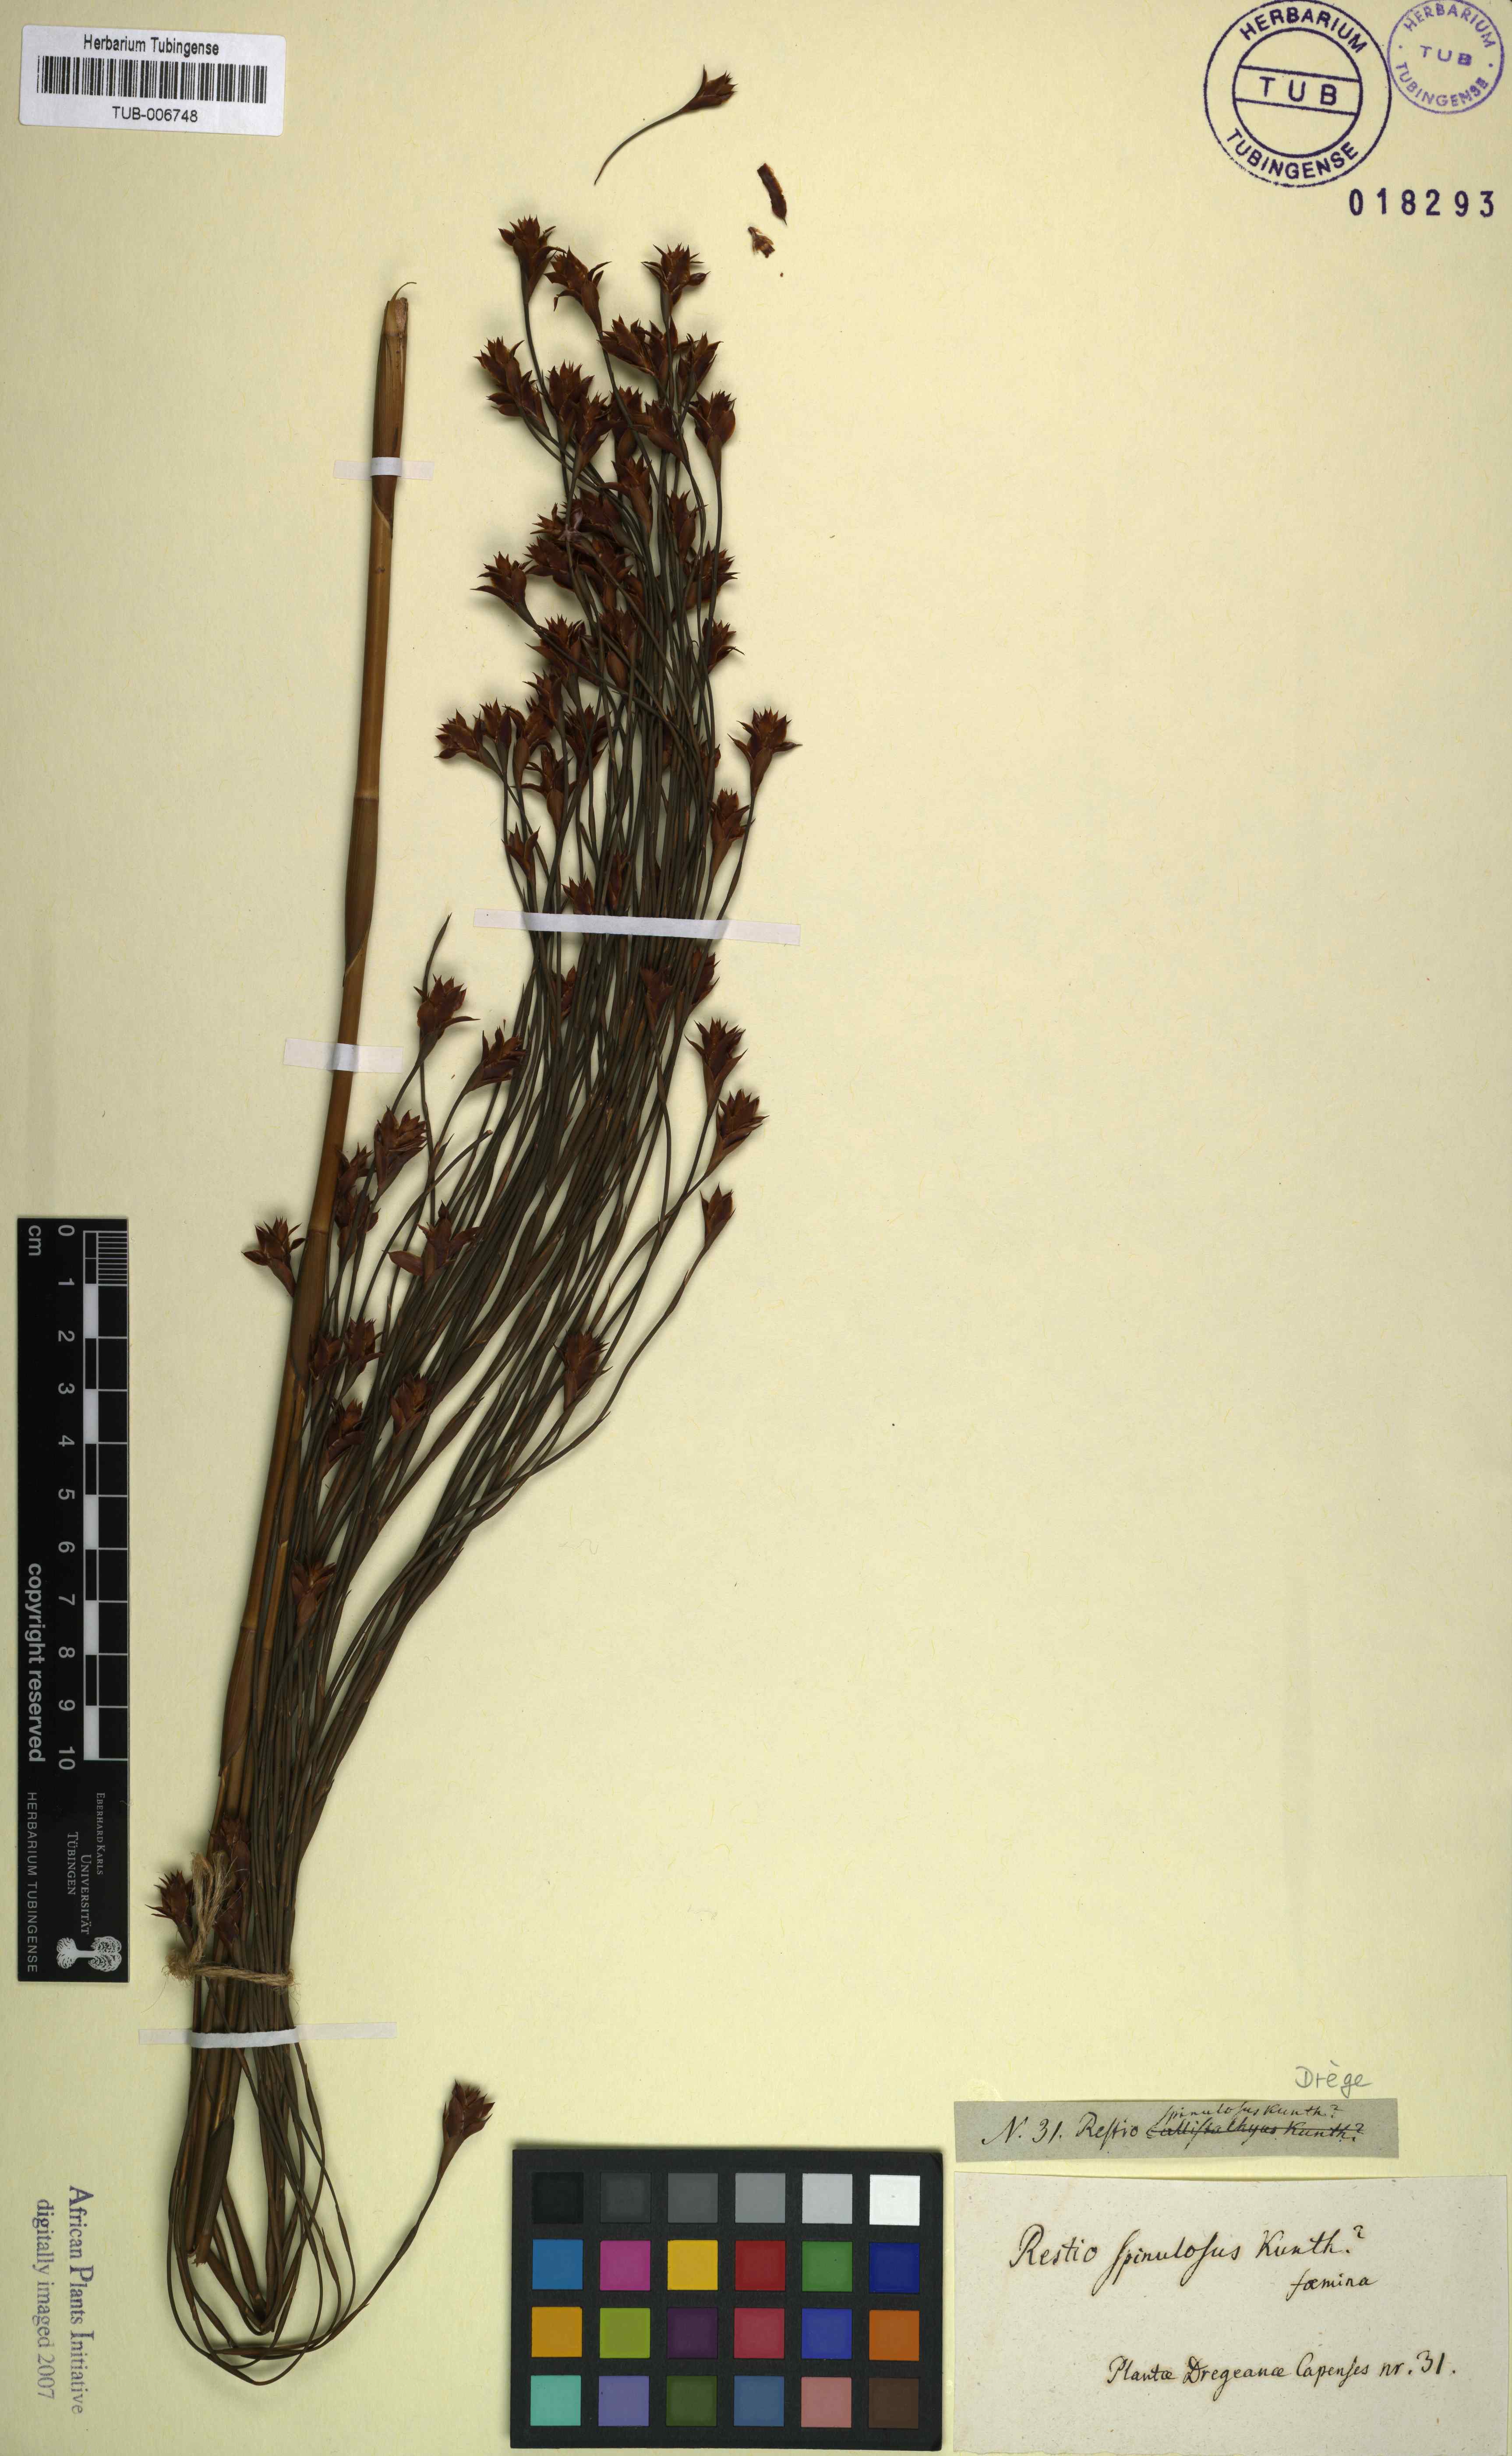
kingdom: Plantae
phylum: Tracheophyta
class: Liliopsida
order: Poales
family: Restionaceae
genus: Platycaulos
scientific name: Platycaulos callistachyus
